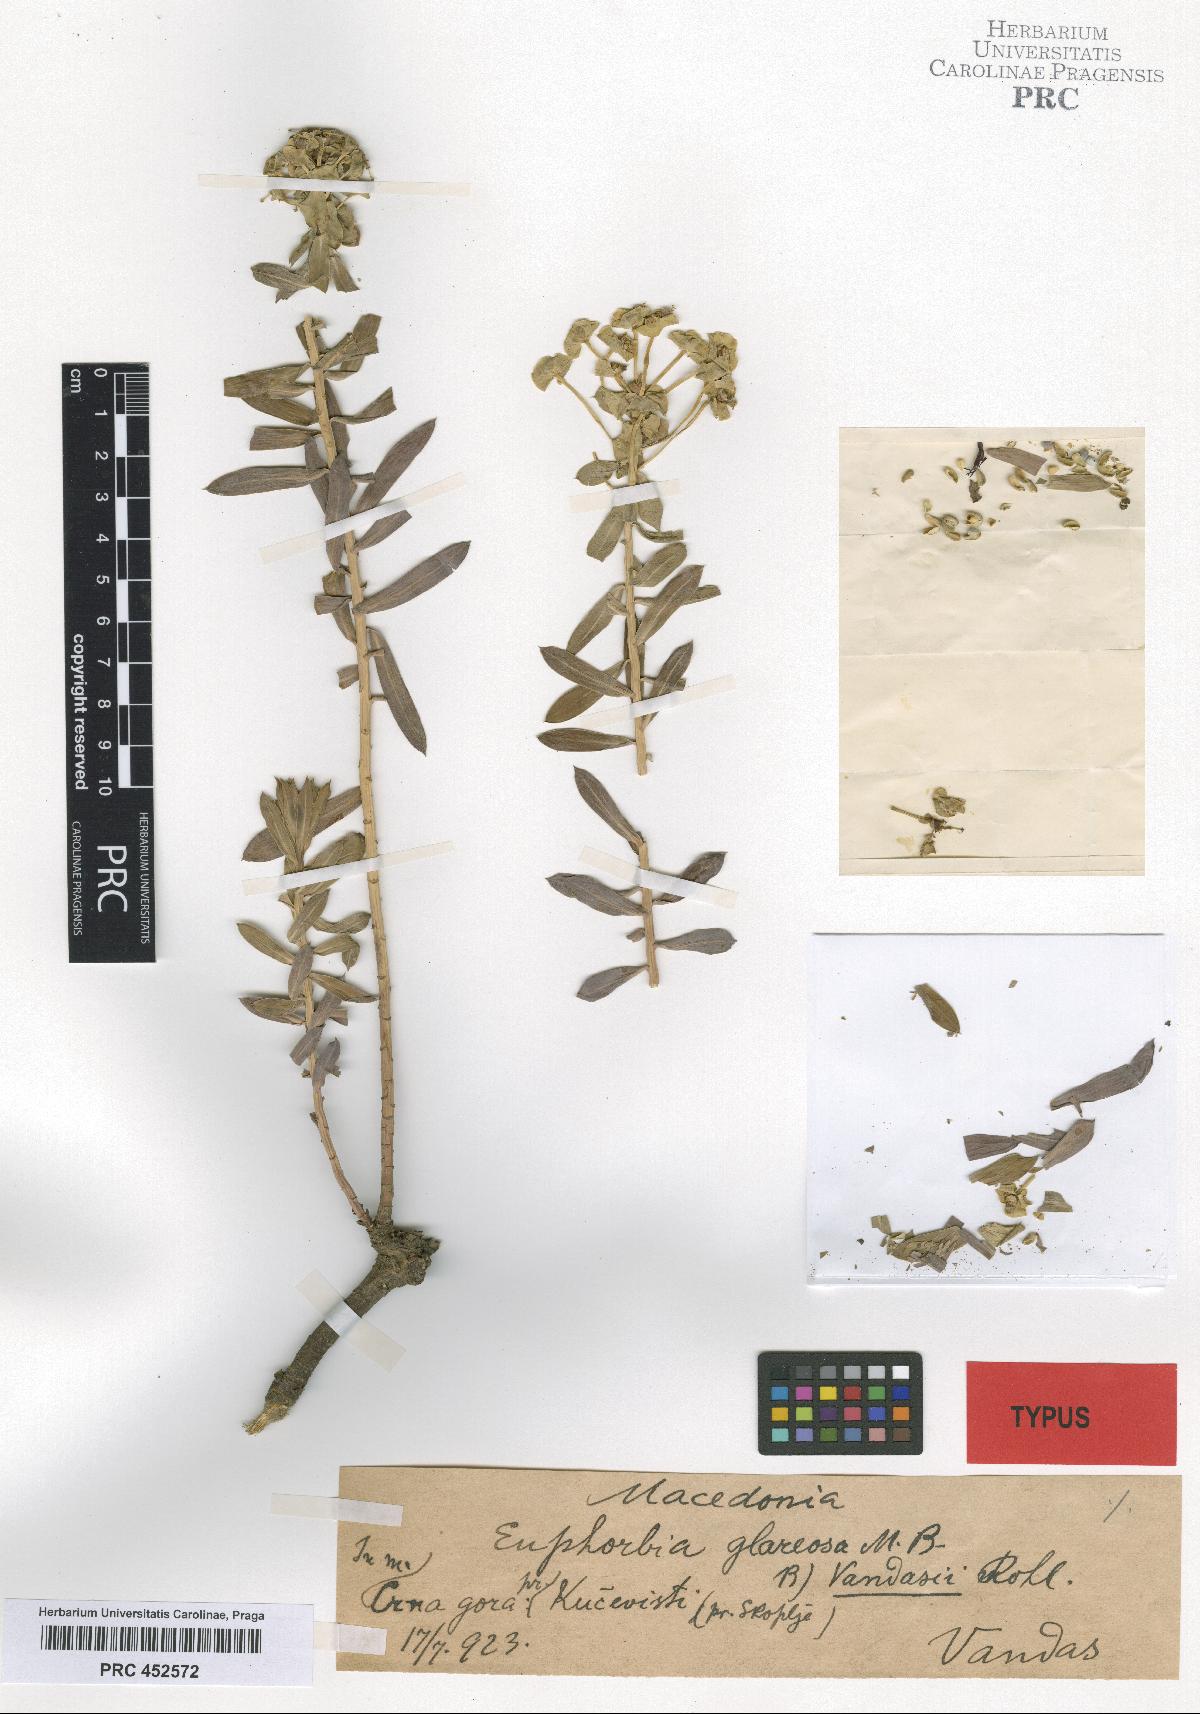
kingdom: Plantae
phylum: Tracheophyta
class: Magnoliopsida
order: Malpighiales
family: Euphorbiaceae
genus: Euphorbia
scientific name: Euphorbia glareosa
